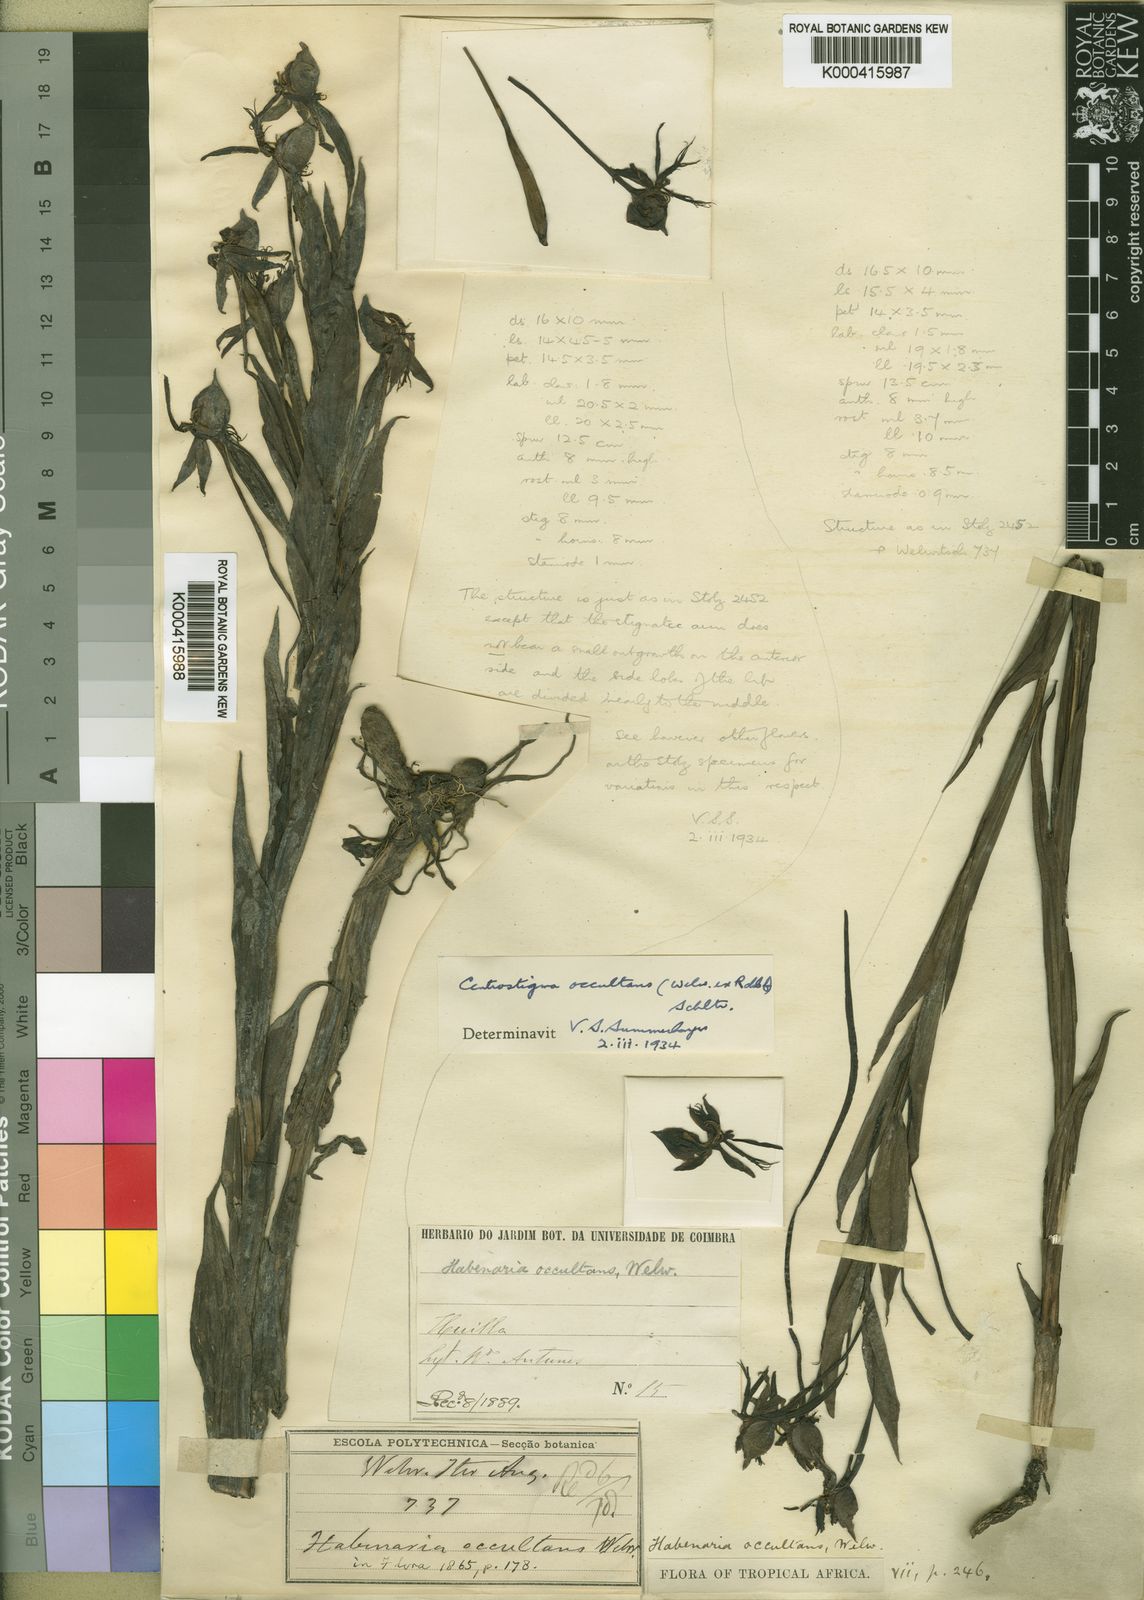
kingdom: Plantae
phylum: Tracheophyta
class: Liliopsida
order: Asparagales
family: Orchidaceae
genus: Centrostigma
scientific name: Centrostigma occultans
